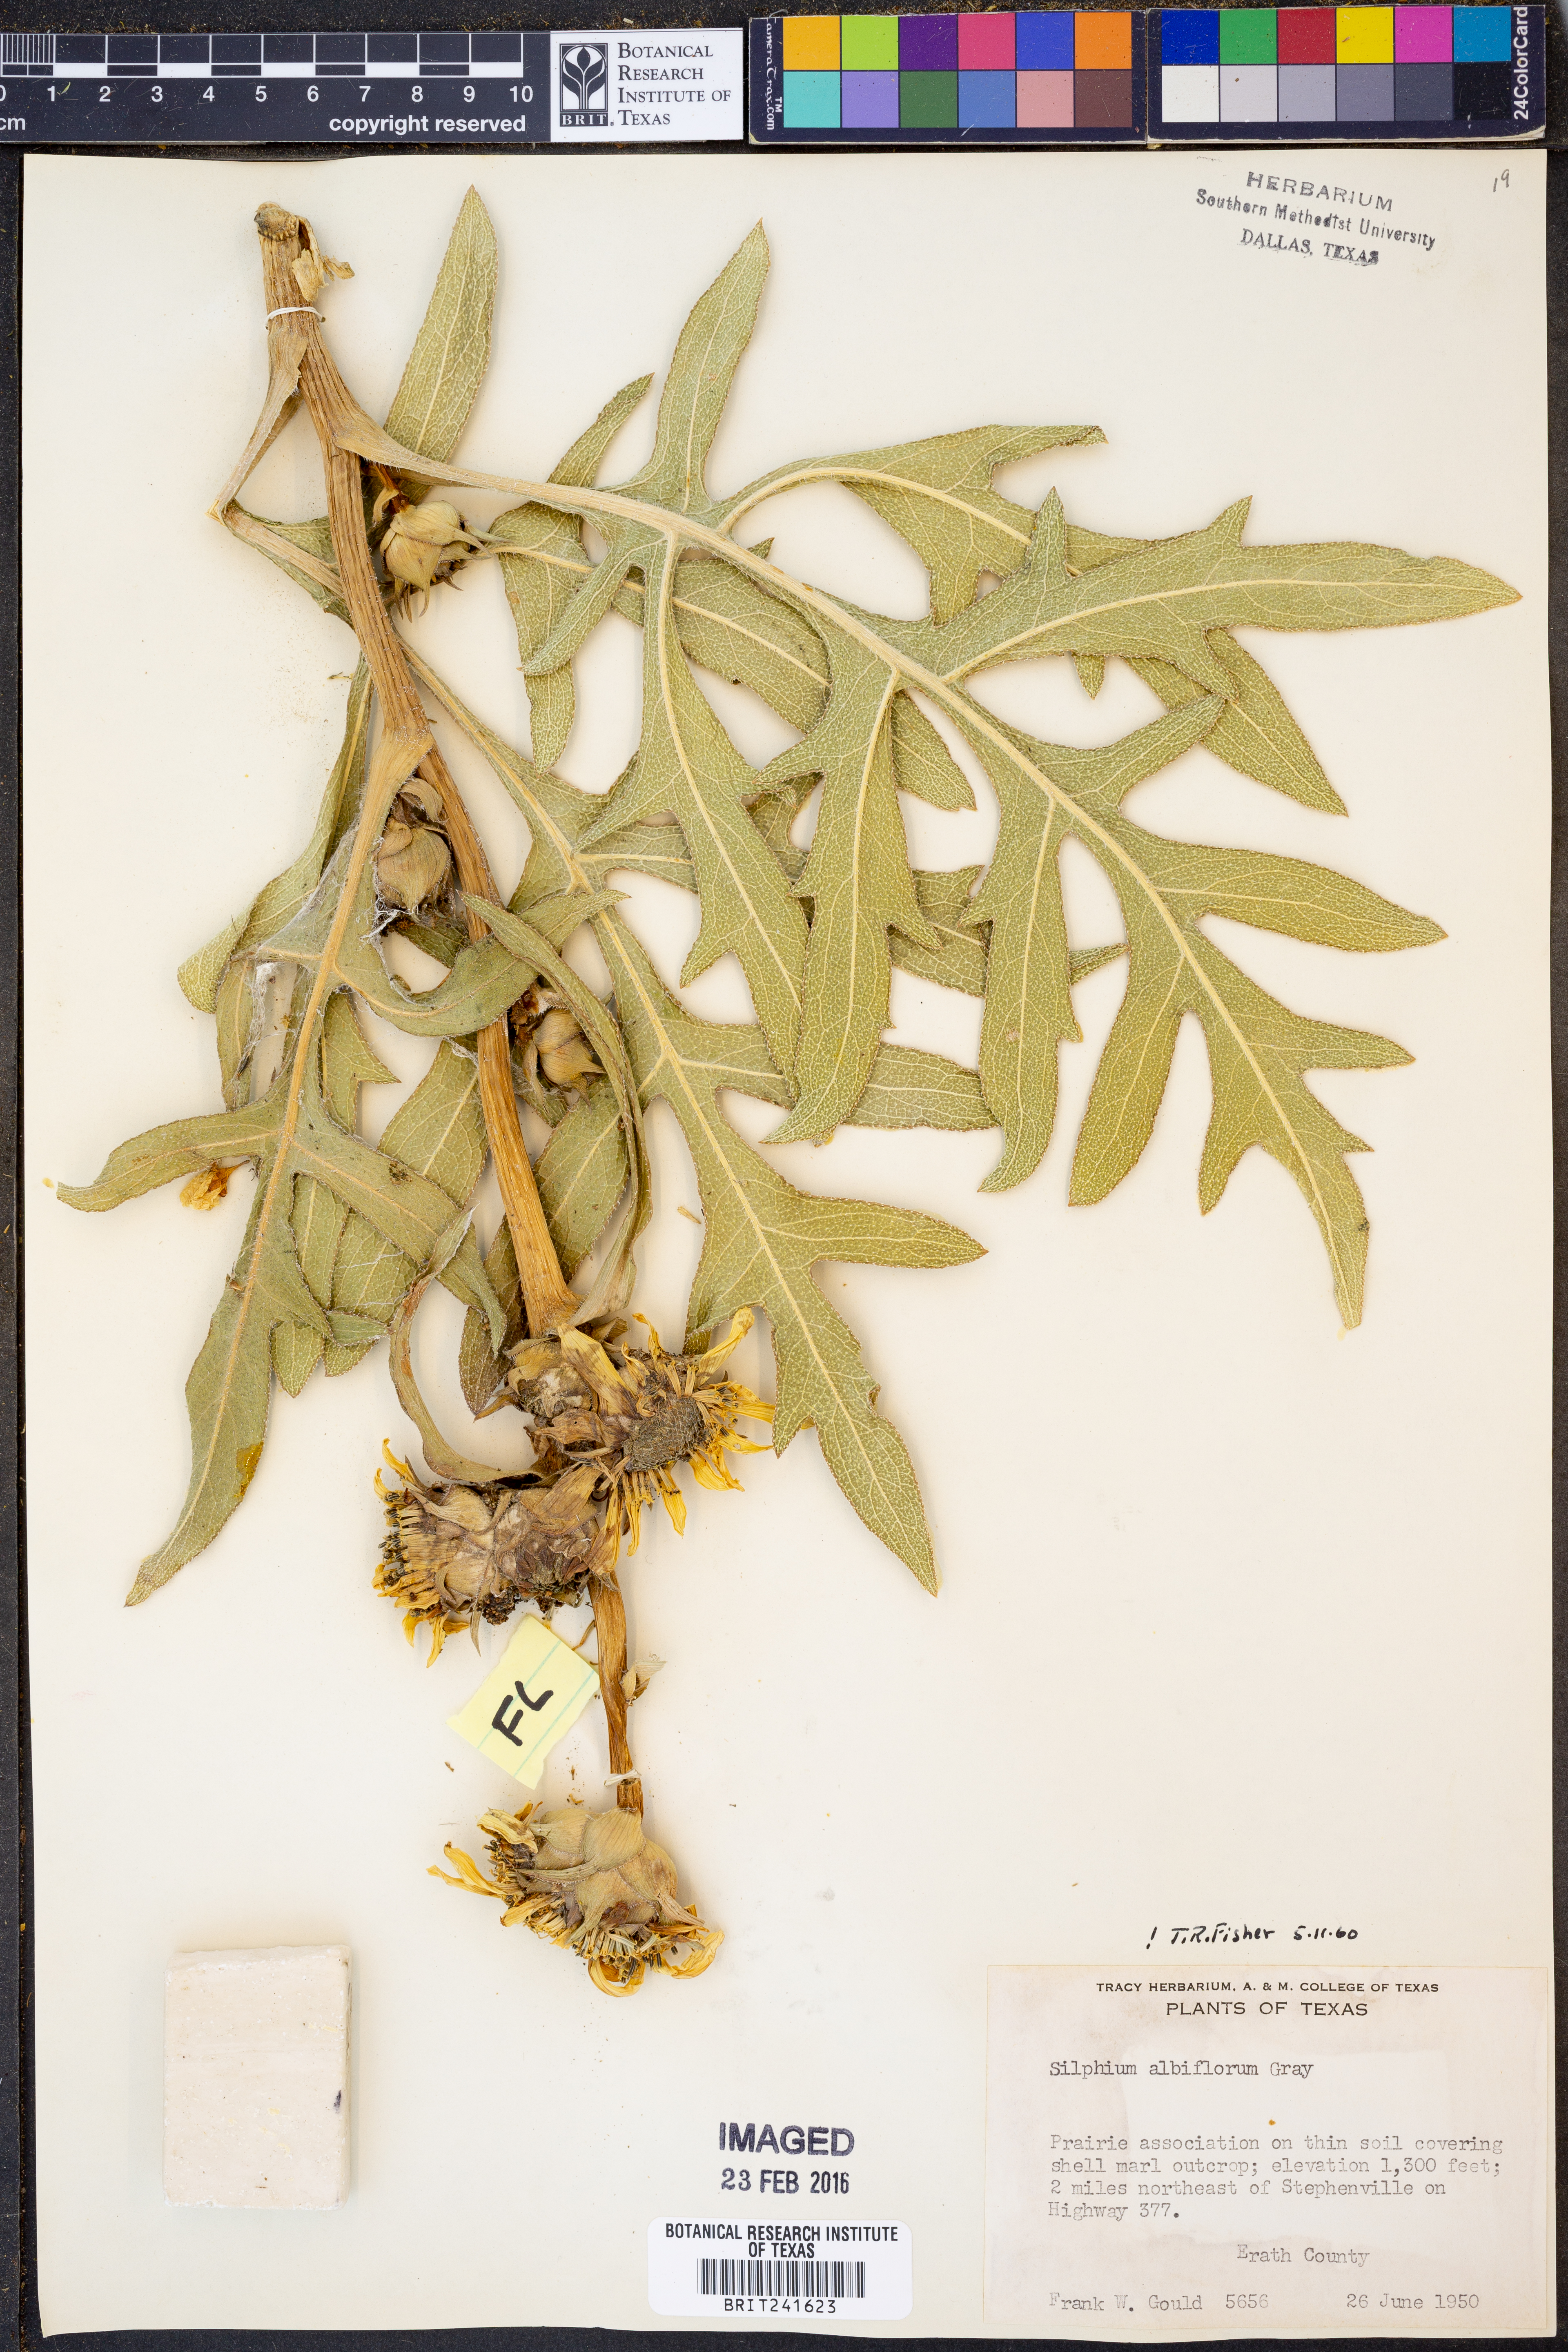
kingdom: Plantae
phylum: Tracheophyta
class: Magnoliopsida
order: Asterales
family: Asteraceae
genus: Silphium
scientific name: Silphium albiflorum
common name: White rosinweed
